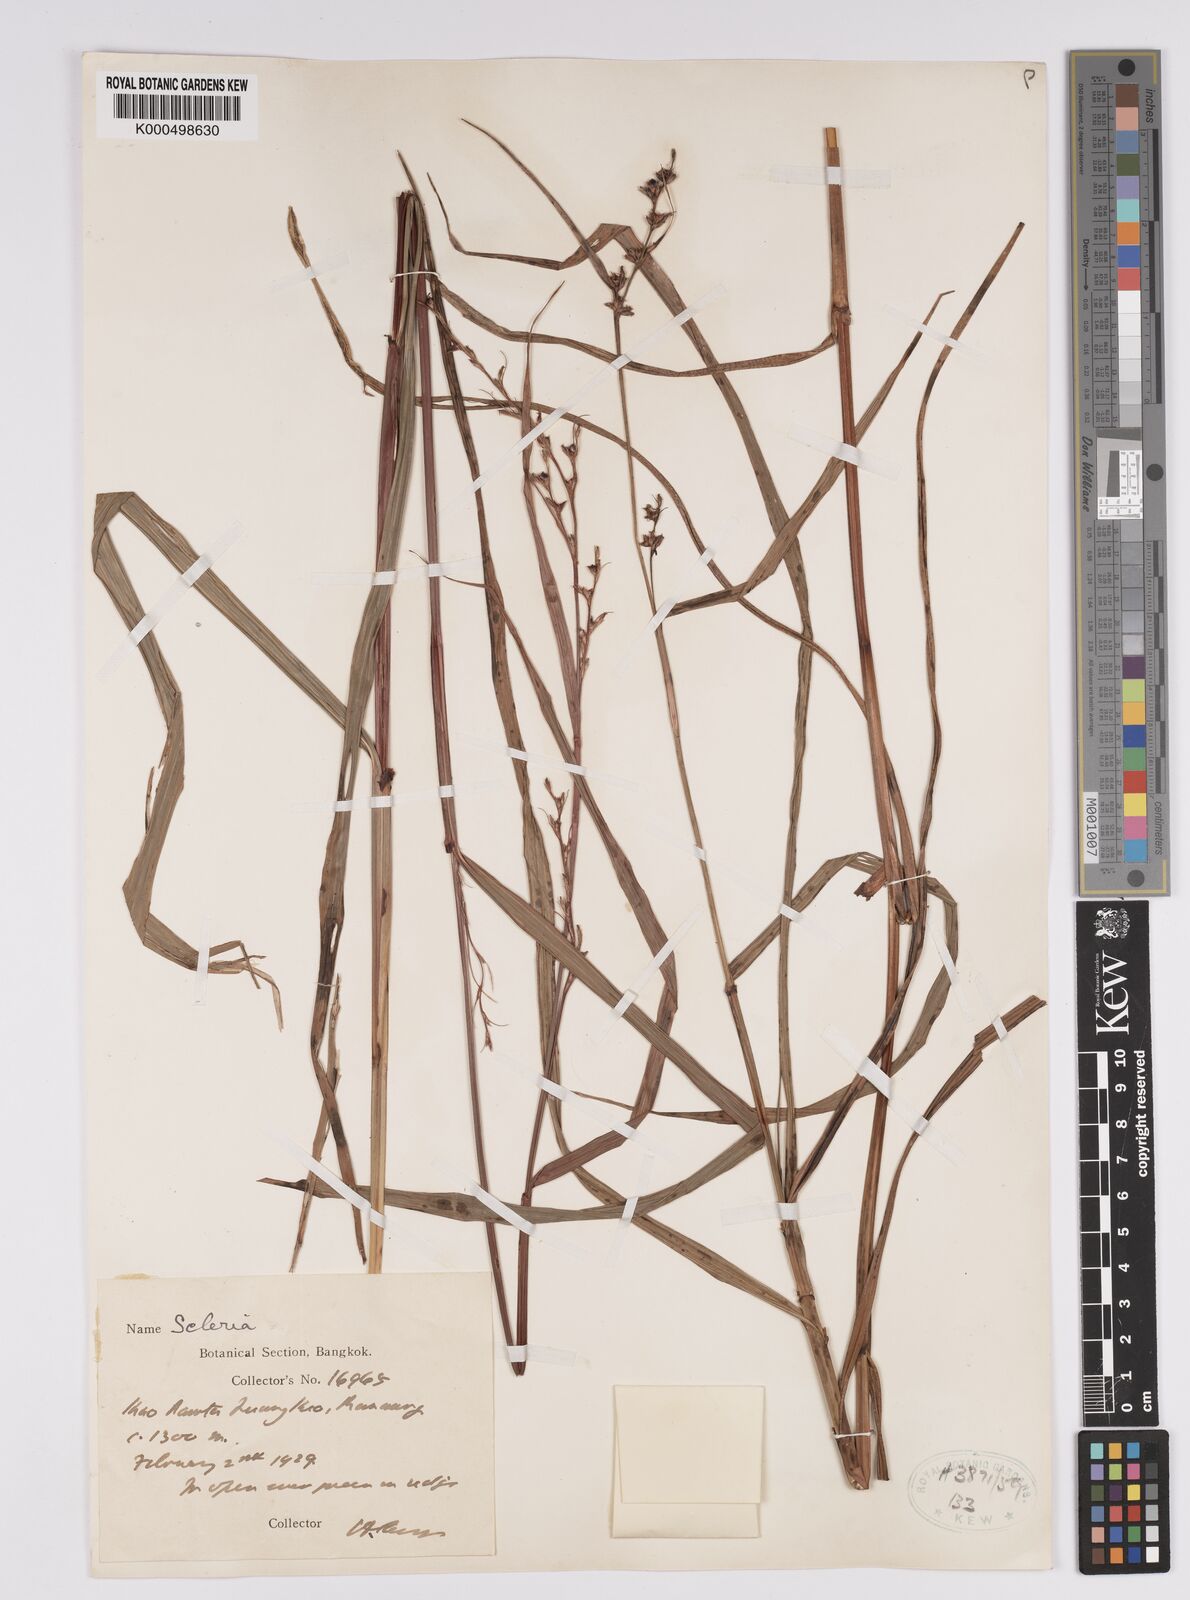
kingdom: Plantae
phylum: Tracheophyta
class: Liliopsida
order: Poales
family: Cyperaceae
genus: Scleria
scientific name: Scleria terrestris
